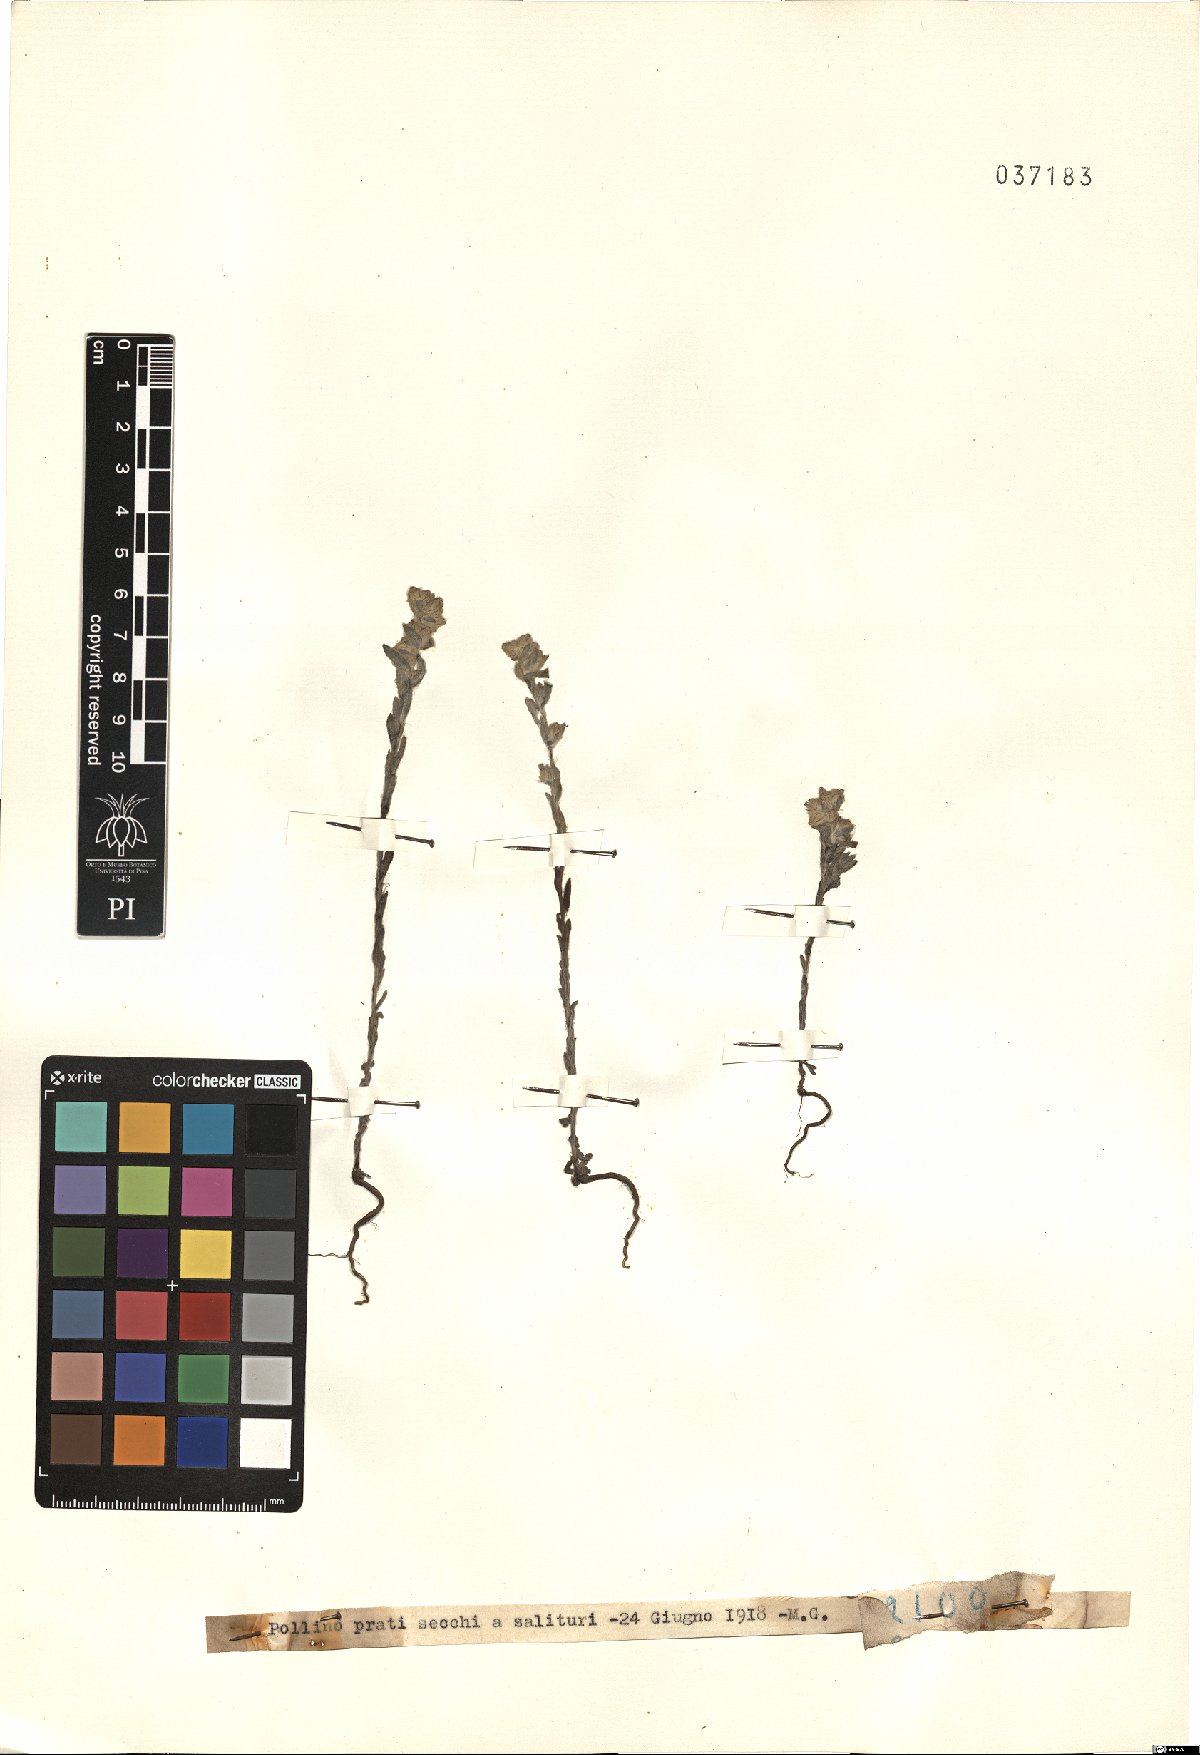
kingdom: Plantae
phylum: Tracheophyta
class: Magnoliopsida
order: Asterales
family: Asteraceae
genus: Filago
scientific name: Filago
